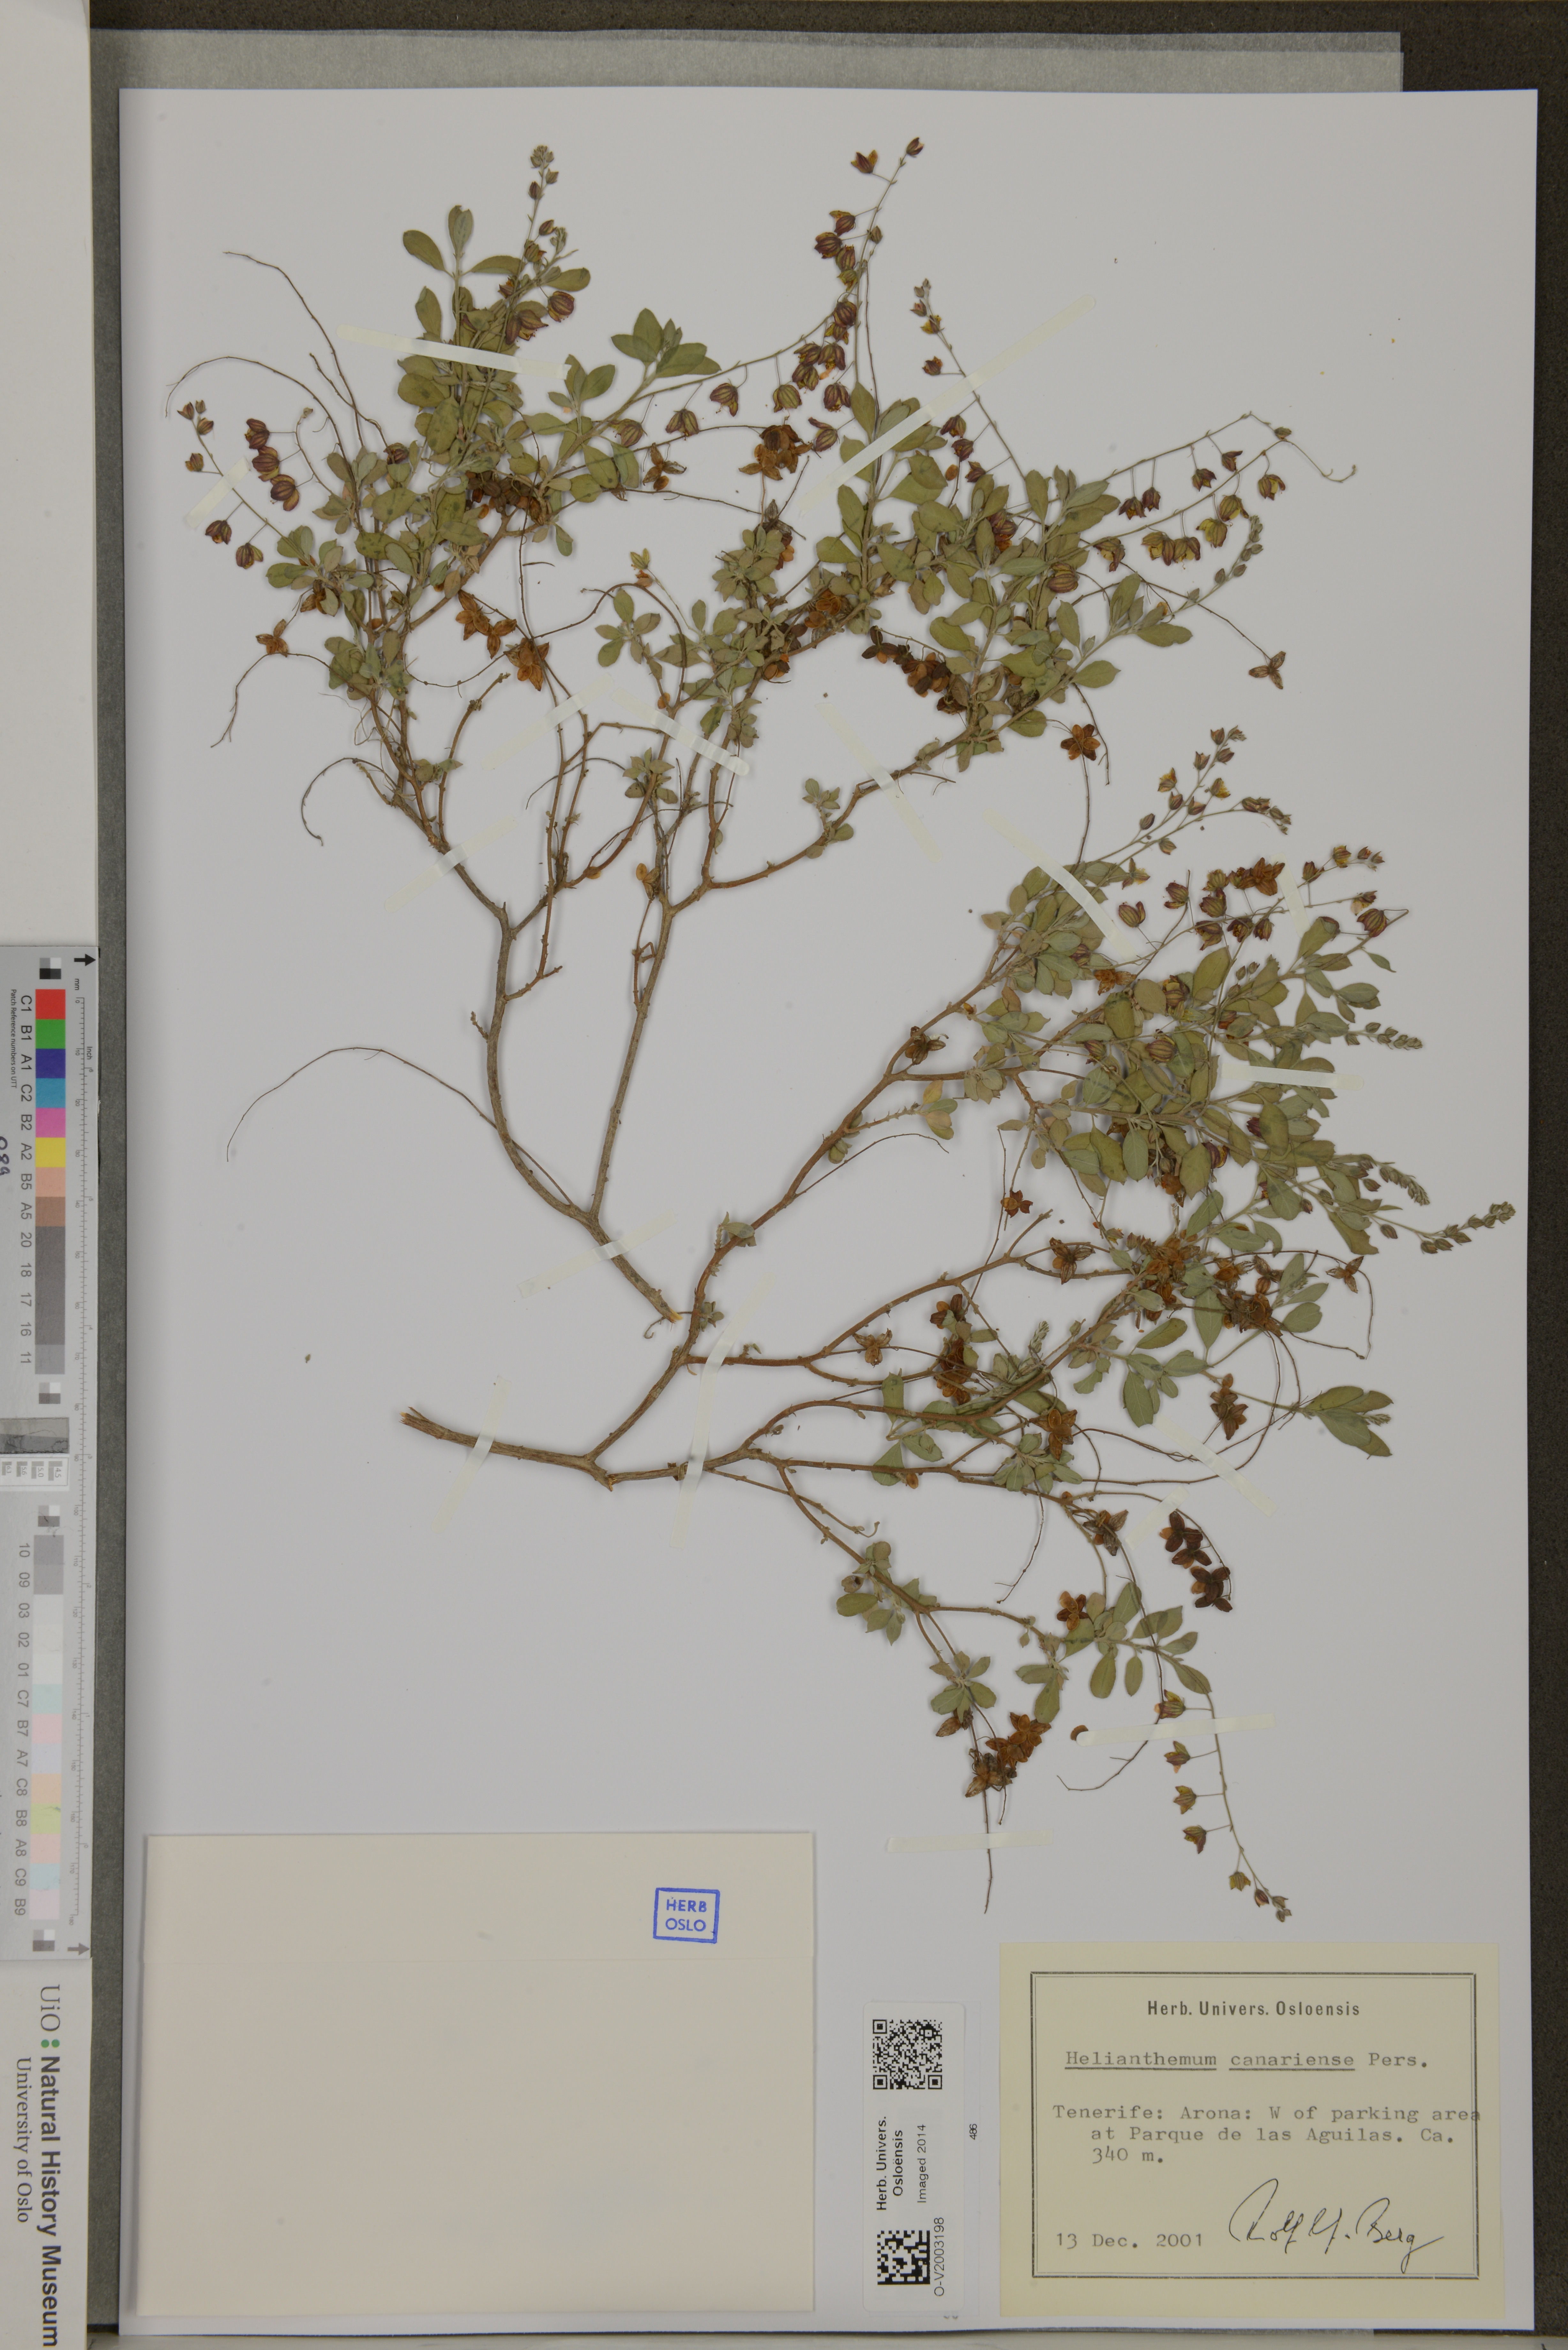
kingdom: Plantae
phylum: Tracheophyta
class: Magnoliopsida
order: Malvales
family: Cistaceae
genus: Helianthemum
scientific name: Helianthemum canariense
